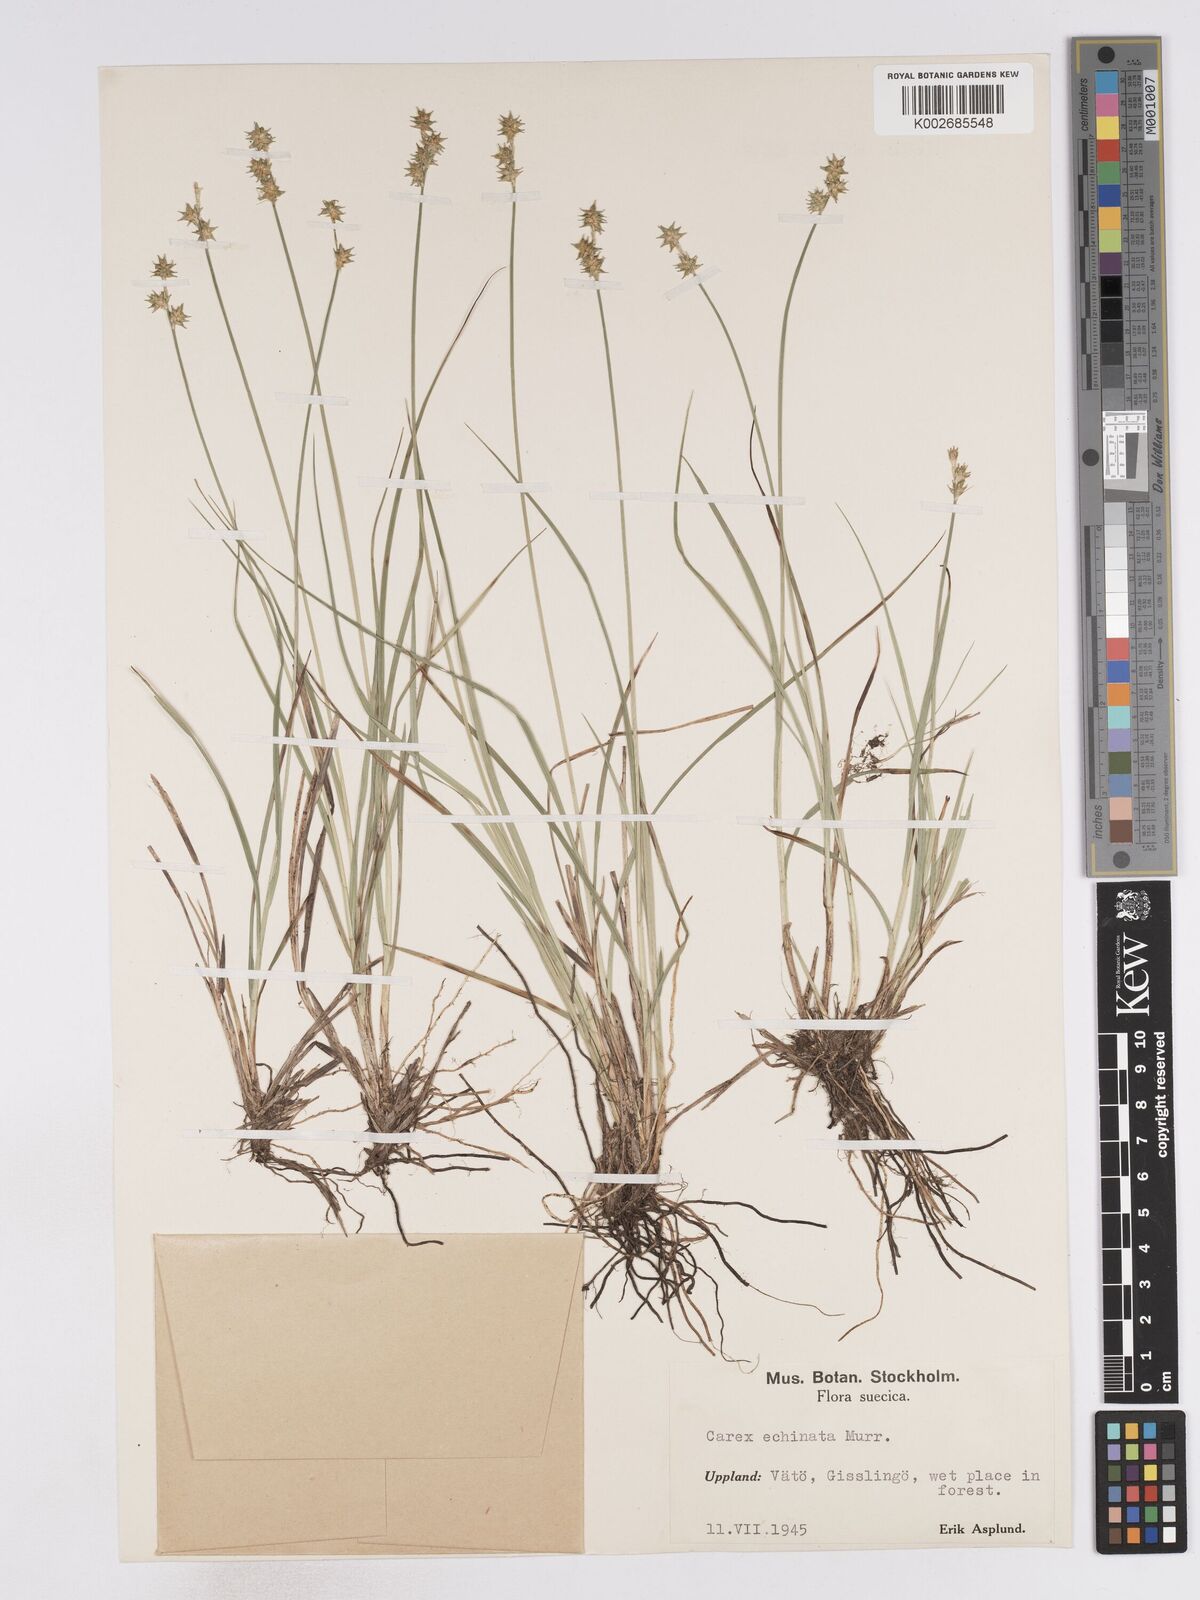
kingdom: Plantae
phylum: Tracheophyta
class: Liliopsida
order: Poales
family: Cyperaceae
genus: Carex
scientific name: Carex echinata
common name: Star sedge
